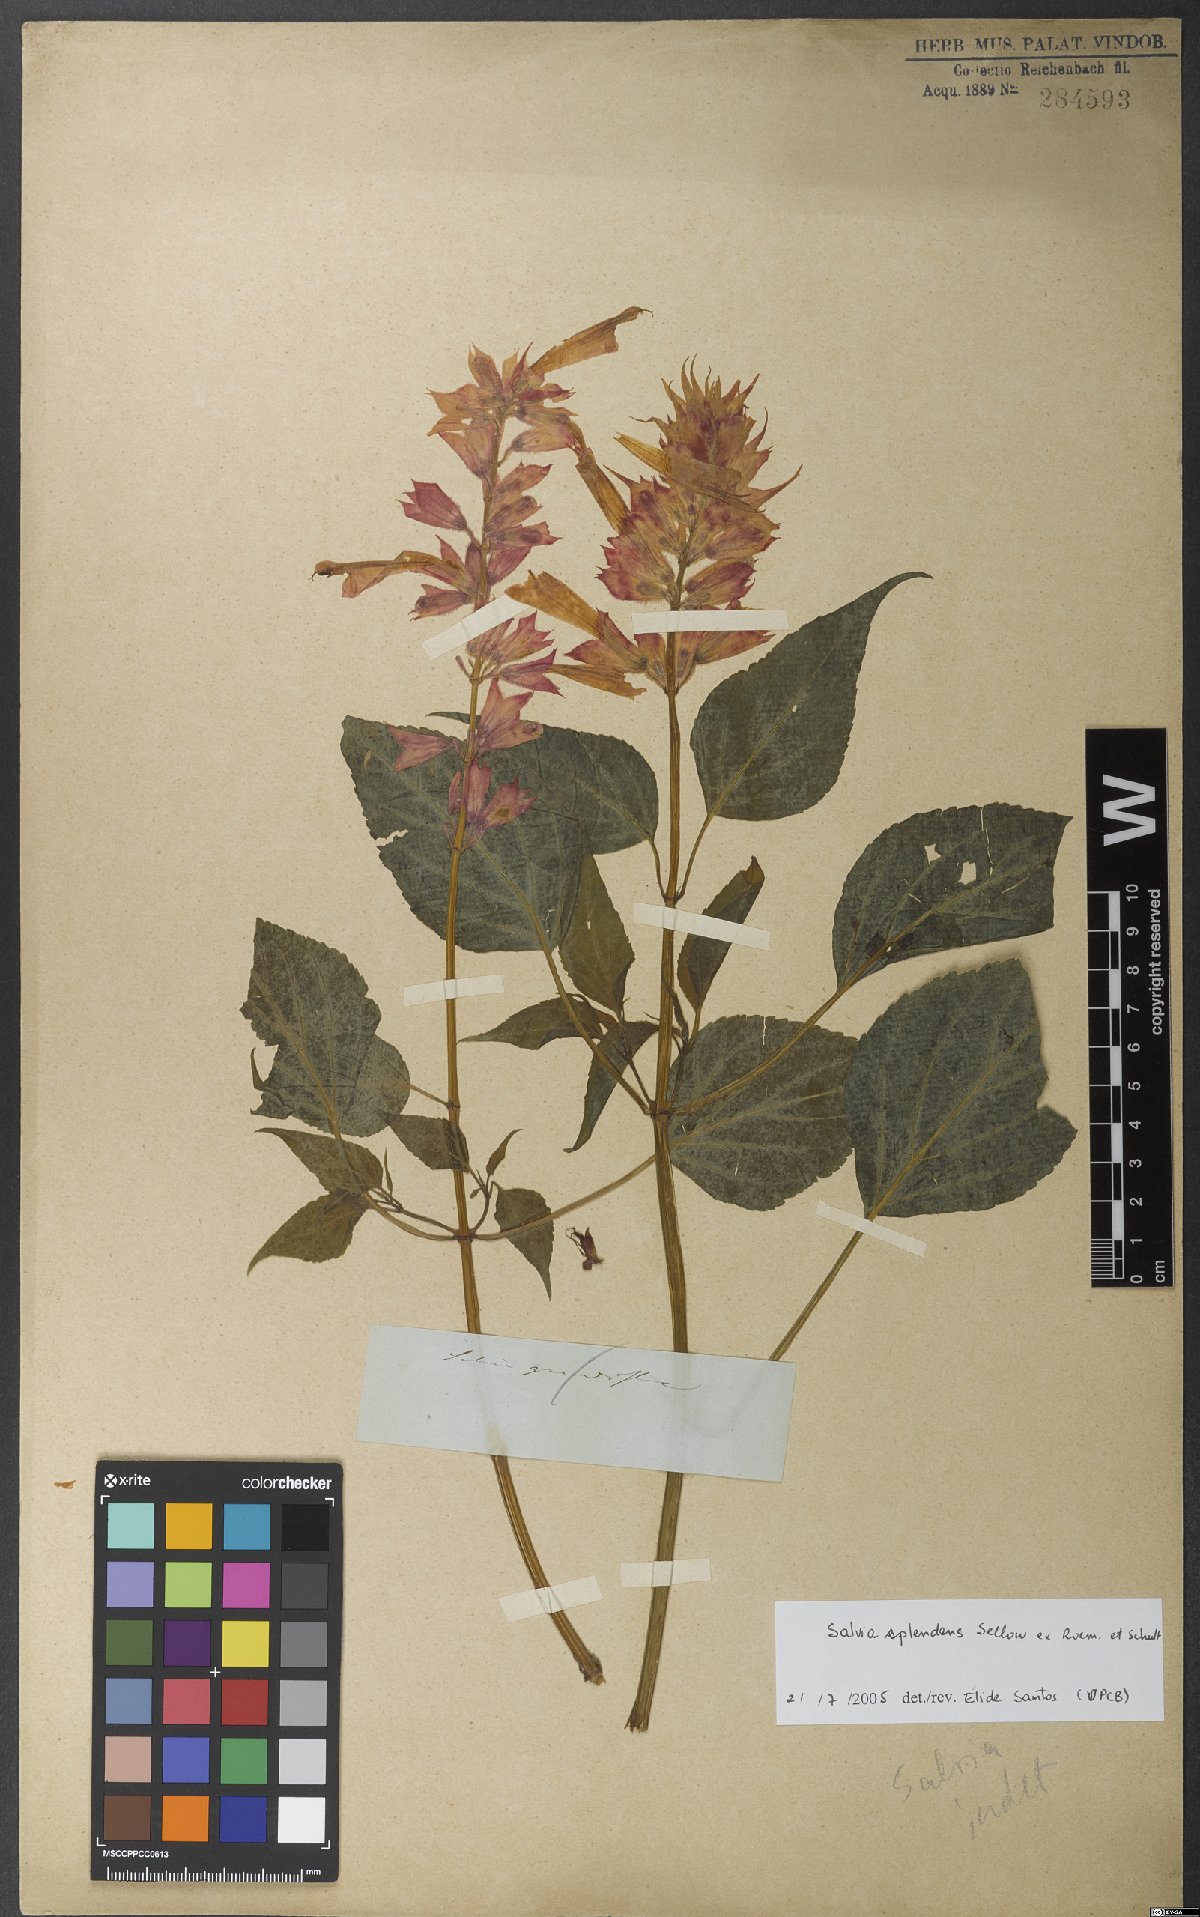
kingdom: Plantae
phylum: Tracheophyta
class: Magnoliopsida
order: Lamiales
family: Lamiaceae
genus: Salvia
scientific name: Salvia splendens
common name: Scarlet sage
